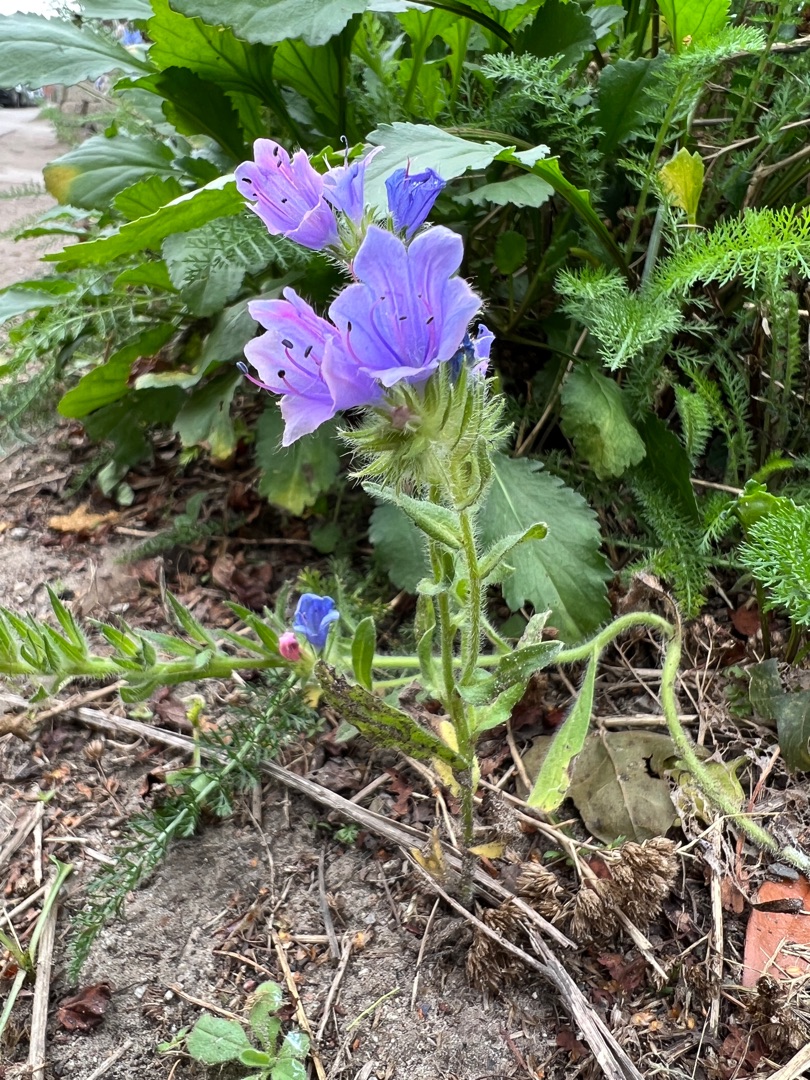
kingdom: Plantae
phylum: Tracheophyta
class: Magnoliopsida
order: Boraginales
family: Boraginaceae
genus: Echium
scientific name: Echium plantagineum
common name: Vejbred-slangehoved
